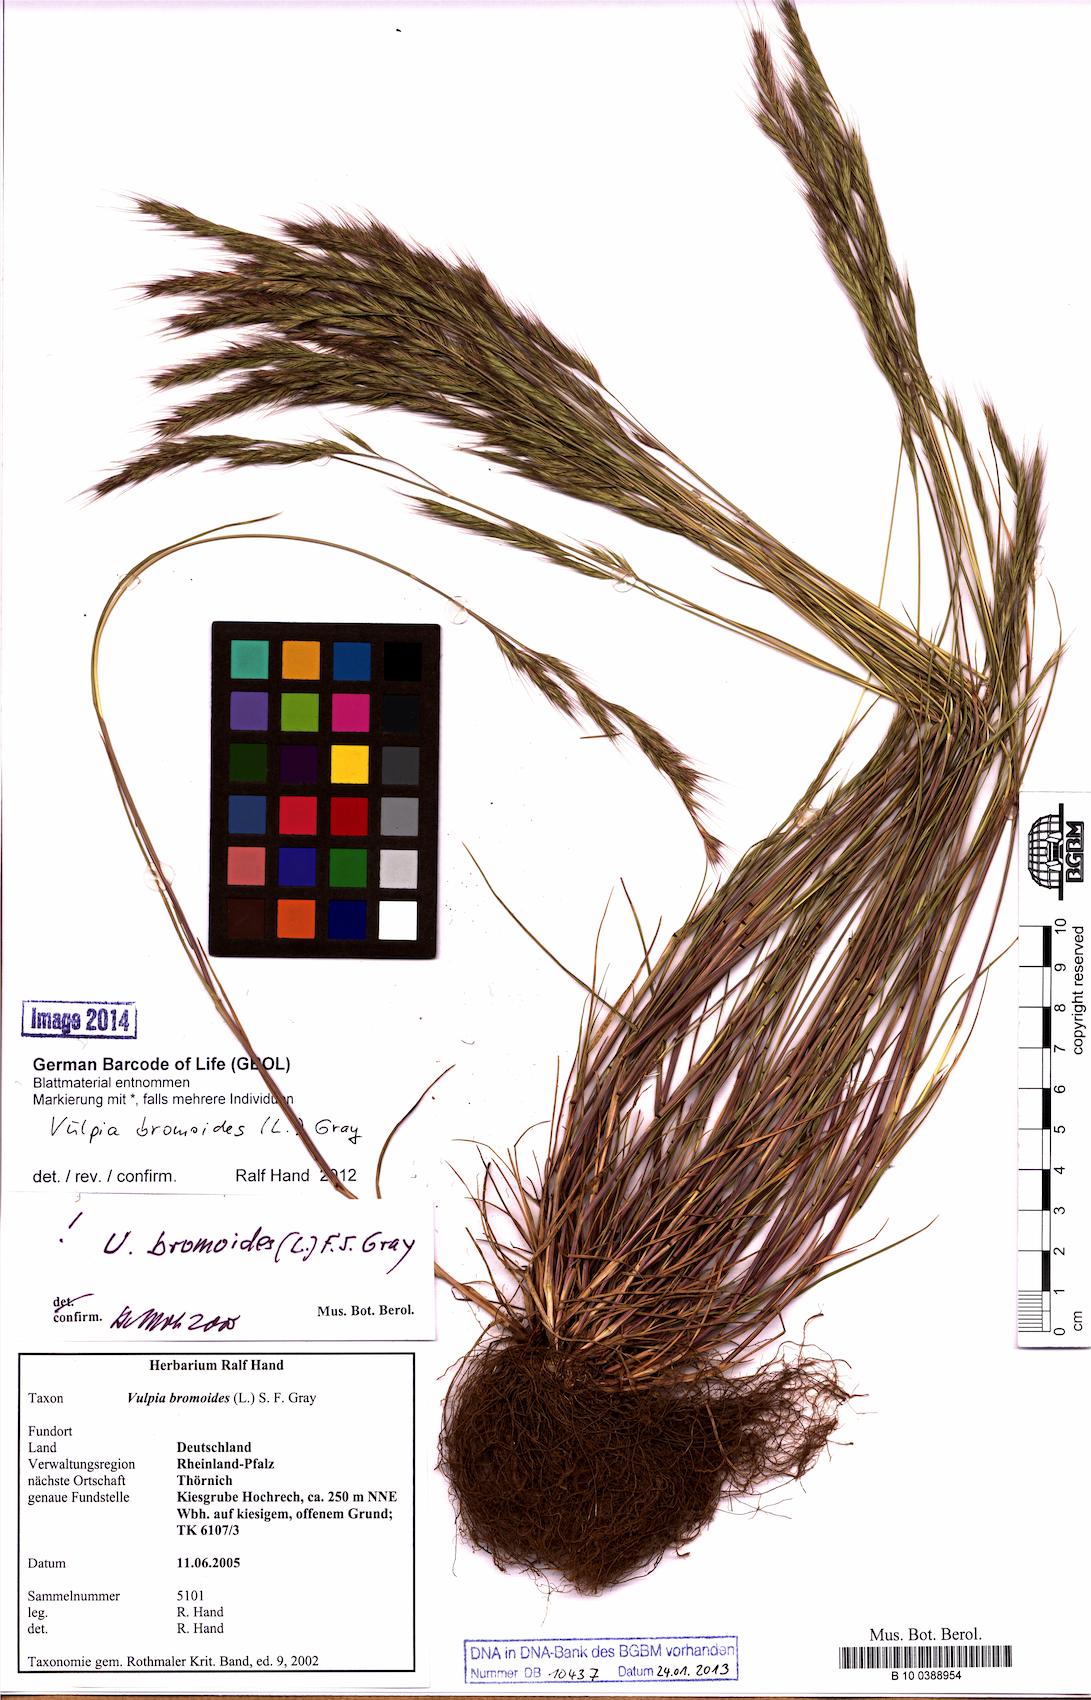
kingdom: Plantae
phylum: Tracheophyta
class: Liliopsida
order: Poales
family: Poaceae
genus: Festuca
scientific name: Festuca bromoides
